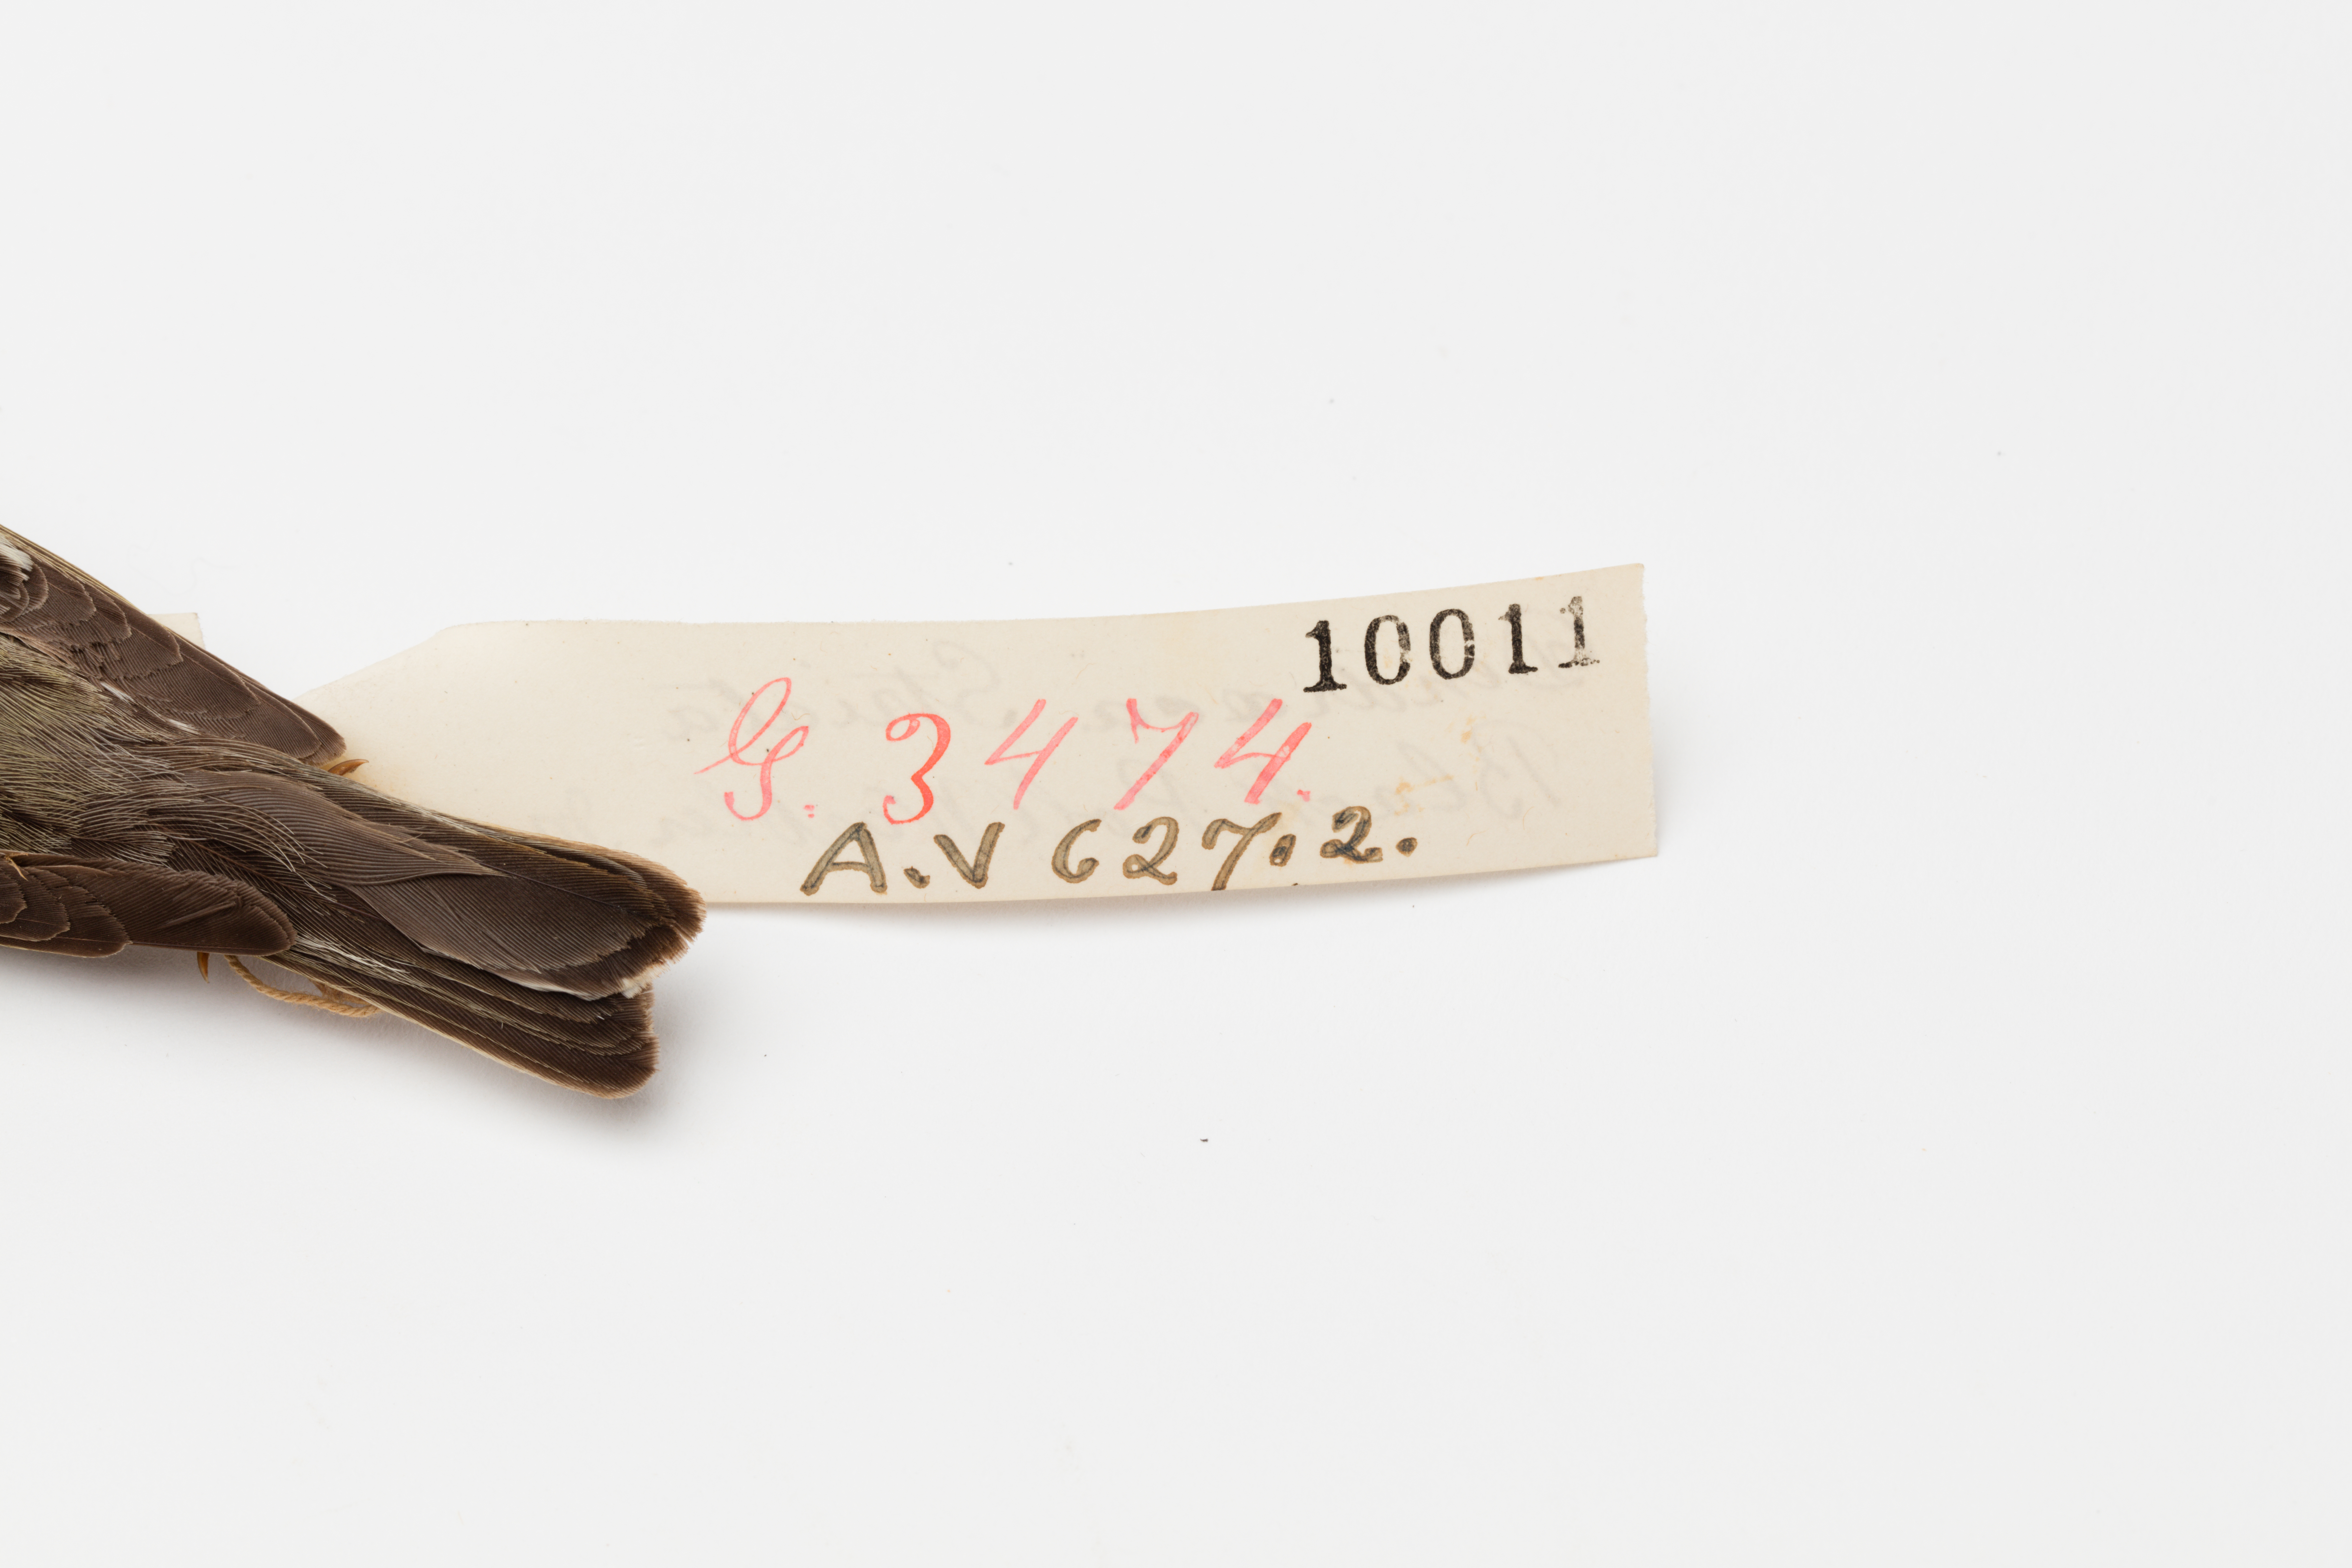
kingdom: Animalia
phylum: Chordata
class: Aves
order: Passeriformes
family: Parulidae
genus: Setophaga
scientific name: Setophaga striata
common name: Blackpoll warbler
